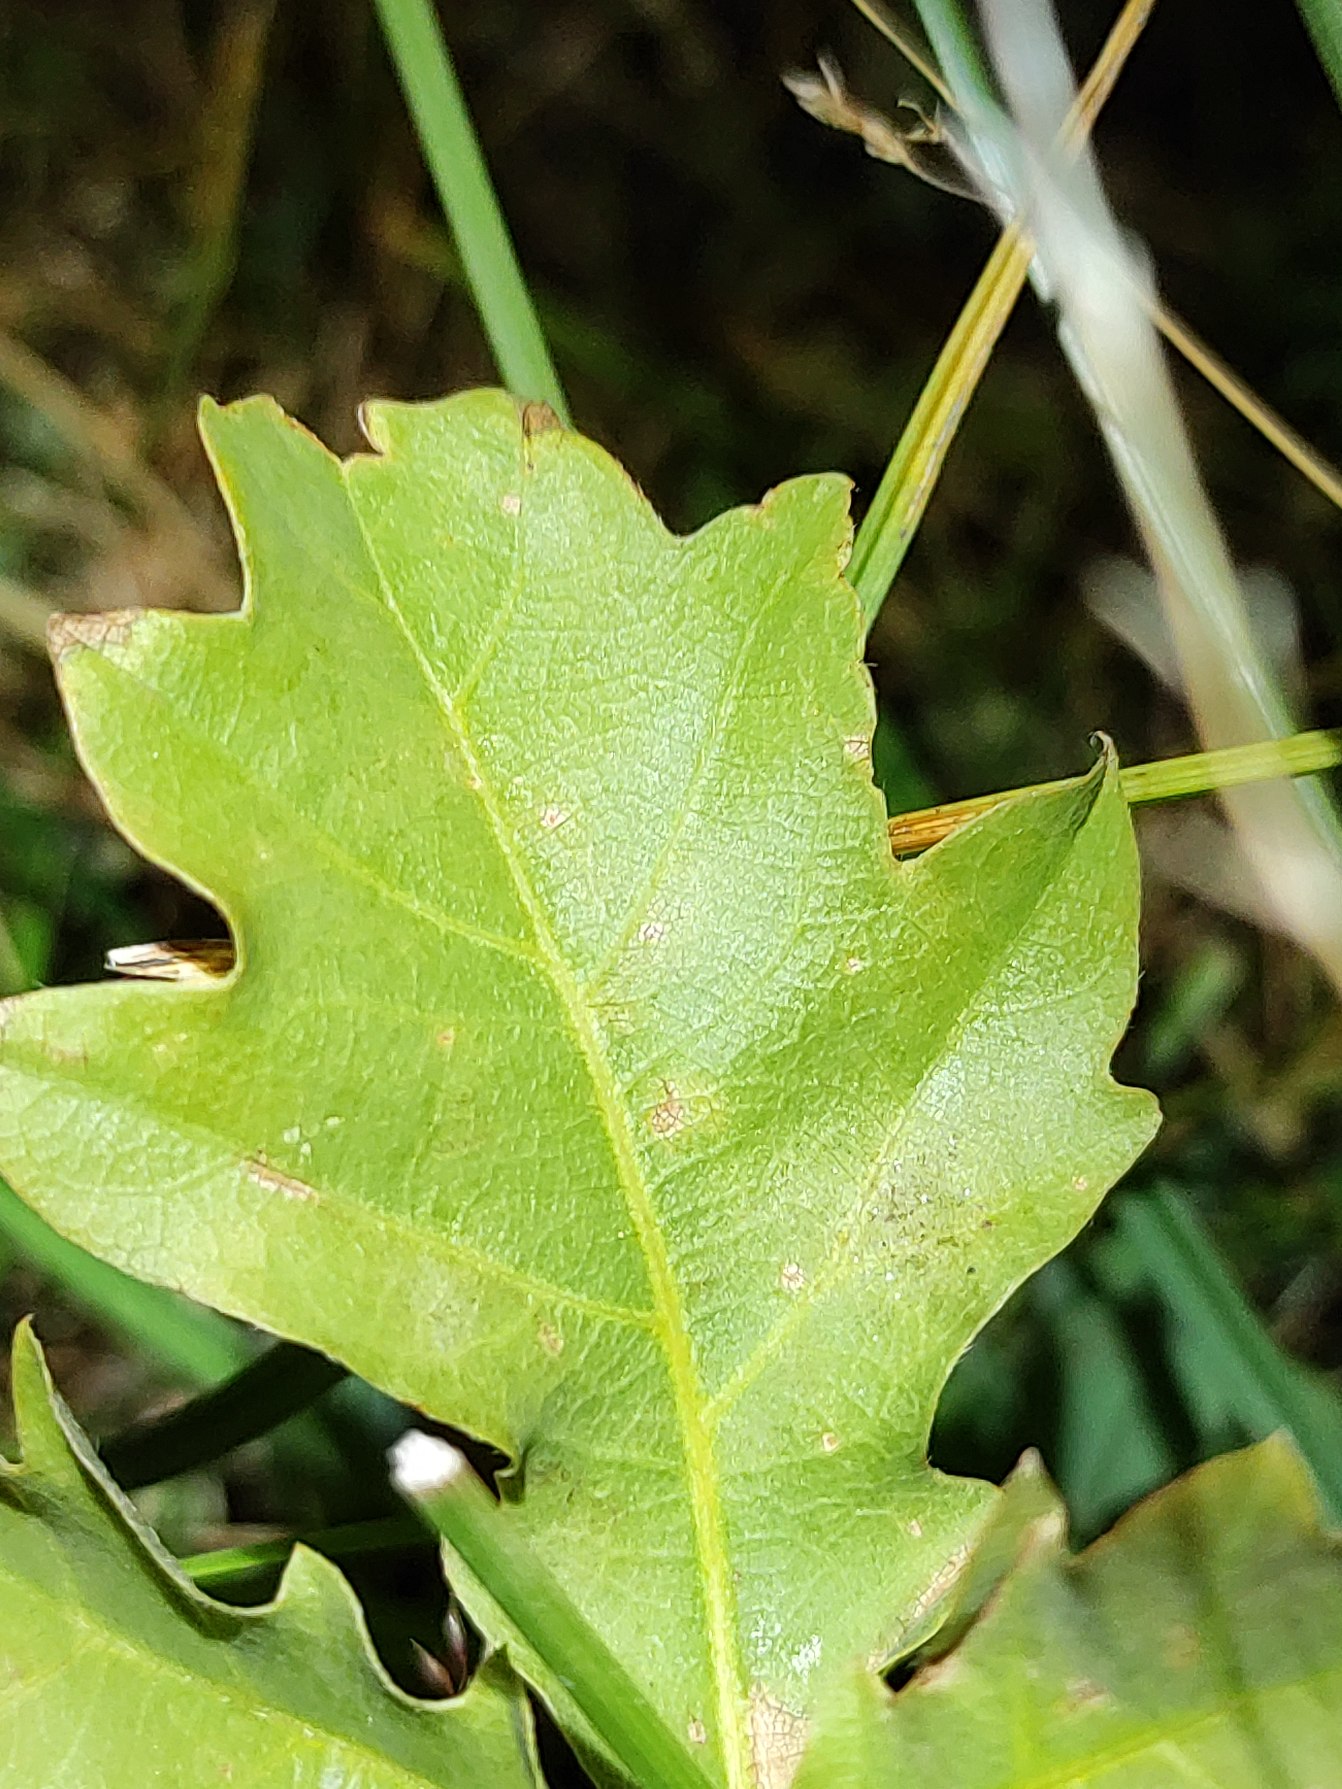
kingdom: Plantae
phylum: Tracheophyta
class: Magnoliopsida
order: Fagales
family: Fagaceae
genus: Quercus
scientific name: Quercus robur
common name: Stilk-eg/almindelig eg
